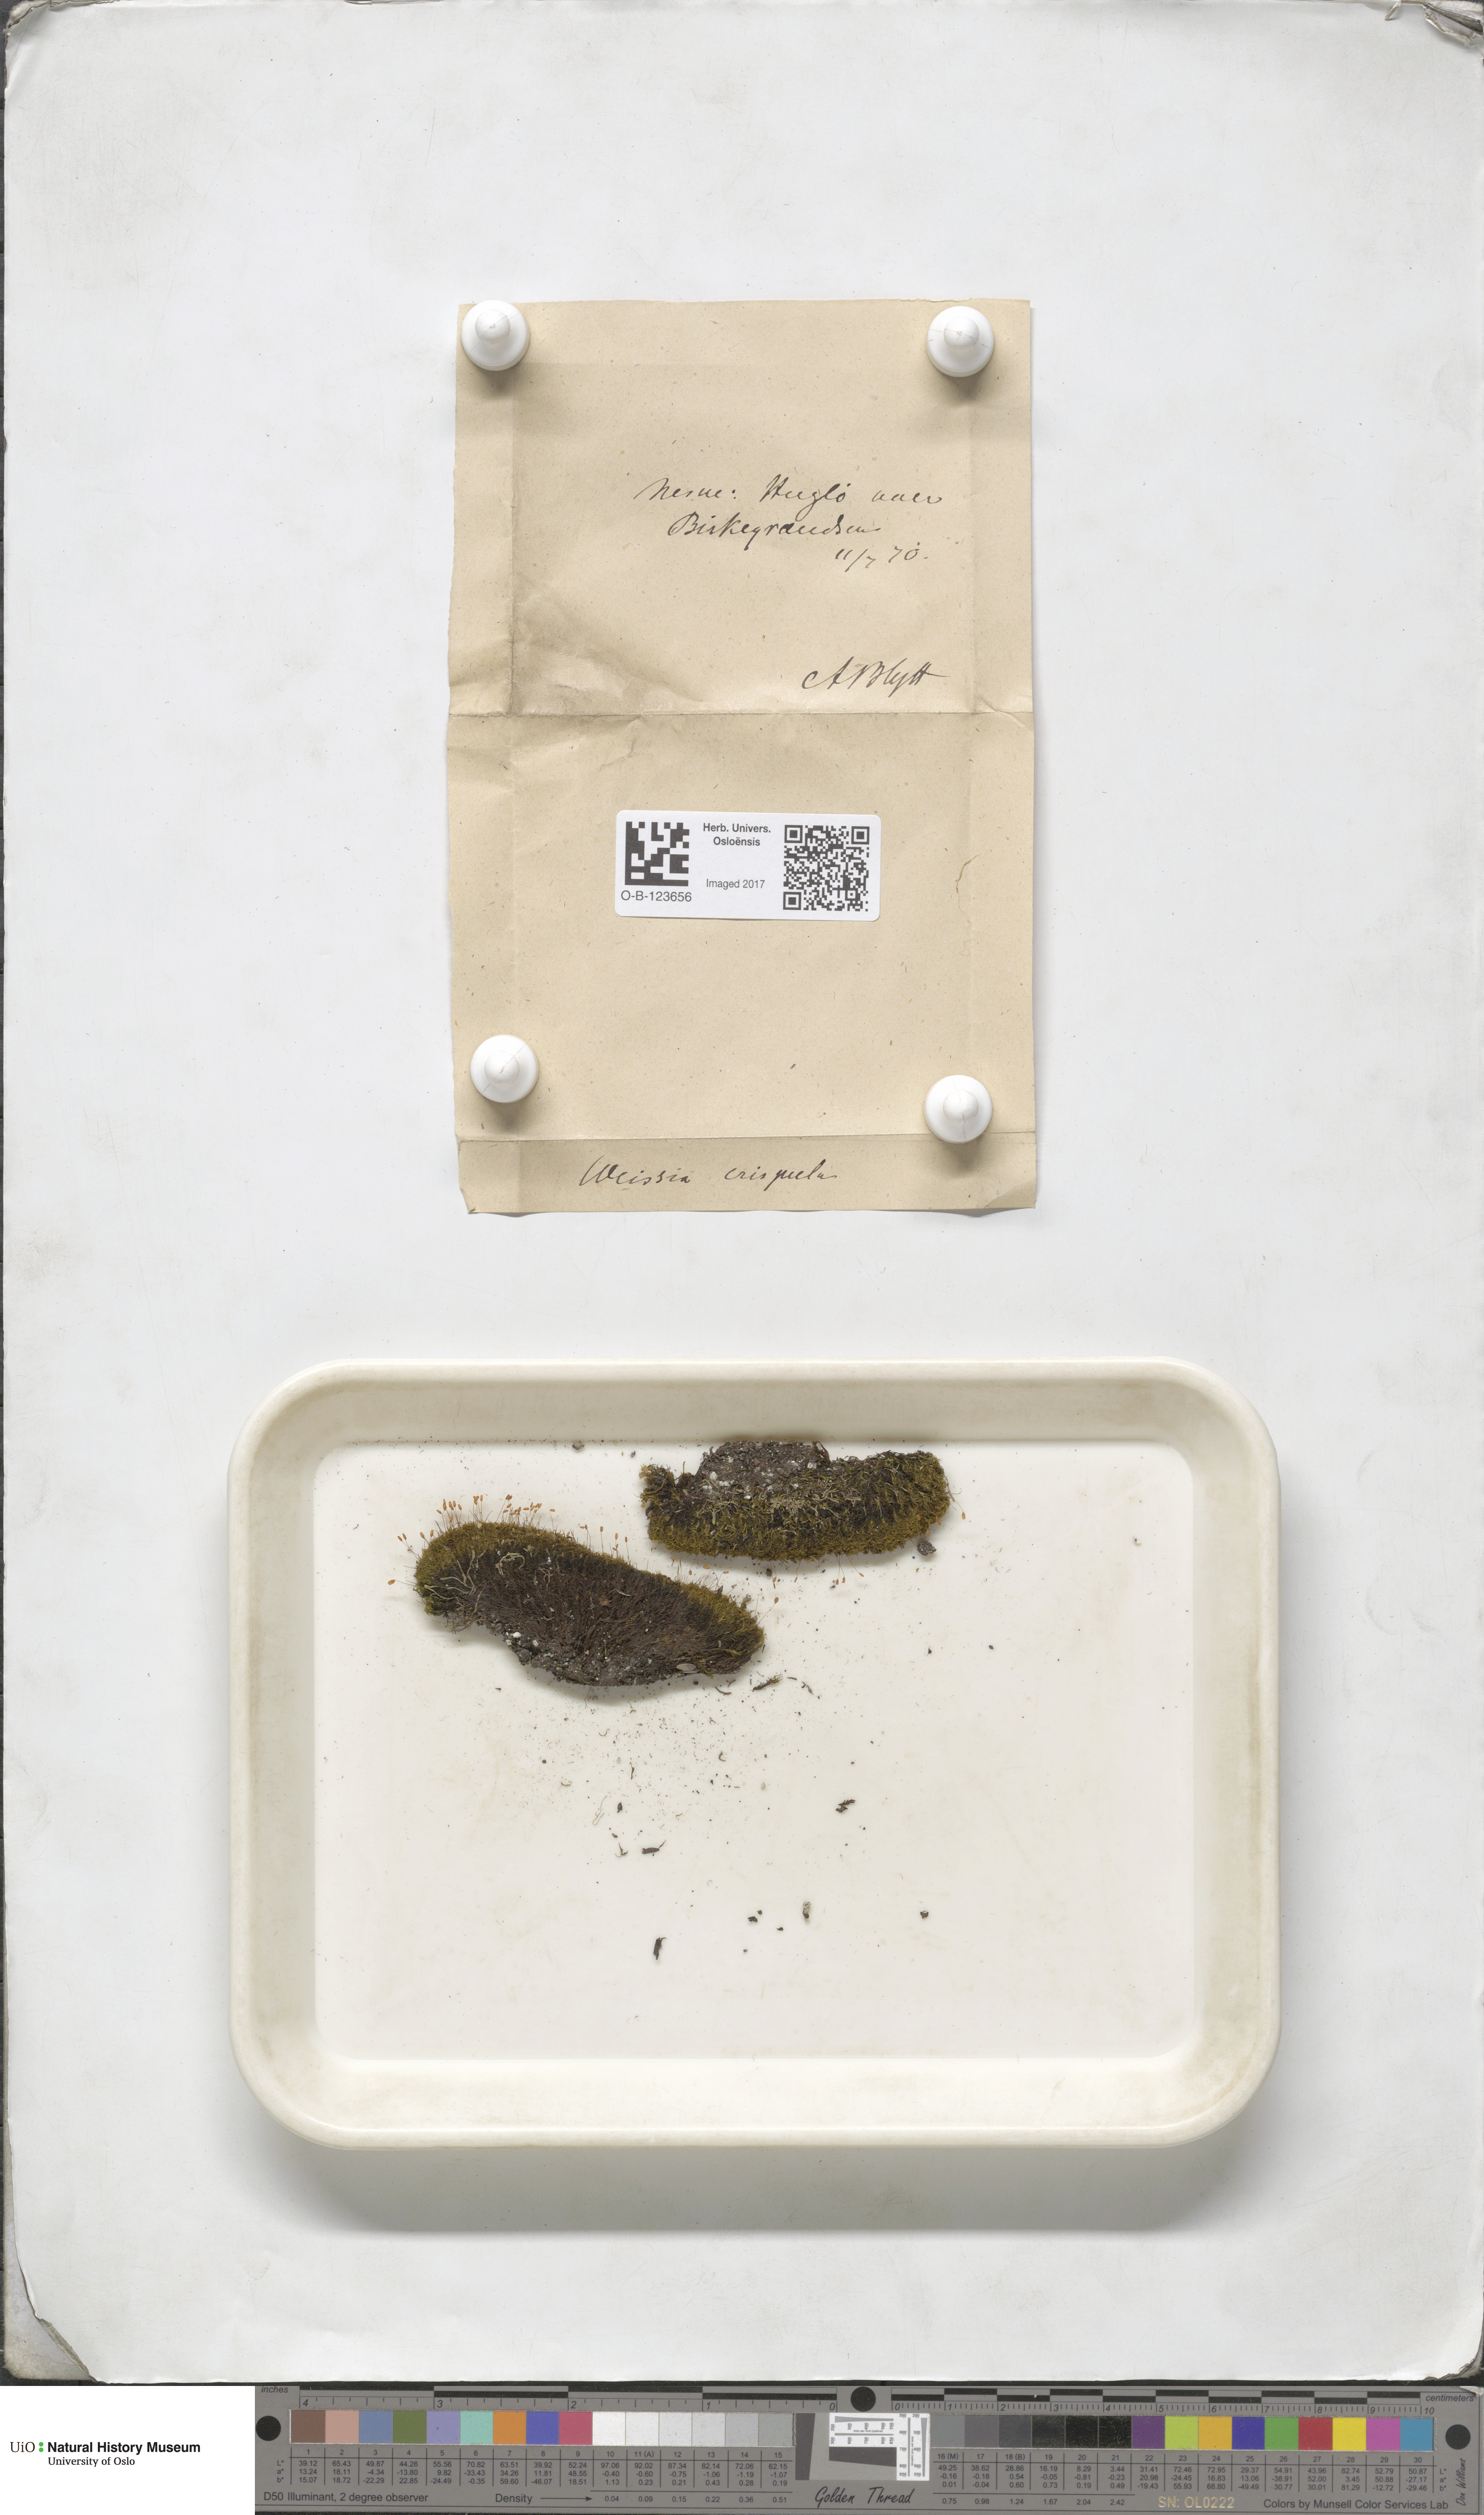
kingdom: Plantae
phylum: Bryophyta
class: Bryopsida
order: Scouleriales
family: Hymenolomataceae
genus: Hymenoloma
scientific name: Hymenoloma crispulum
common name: Mountain pincushion
